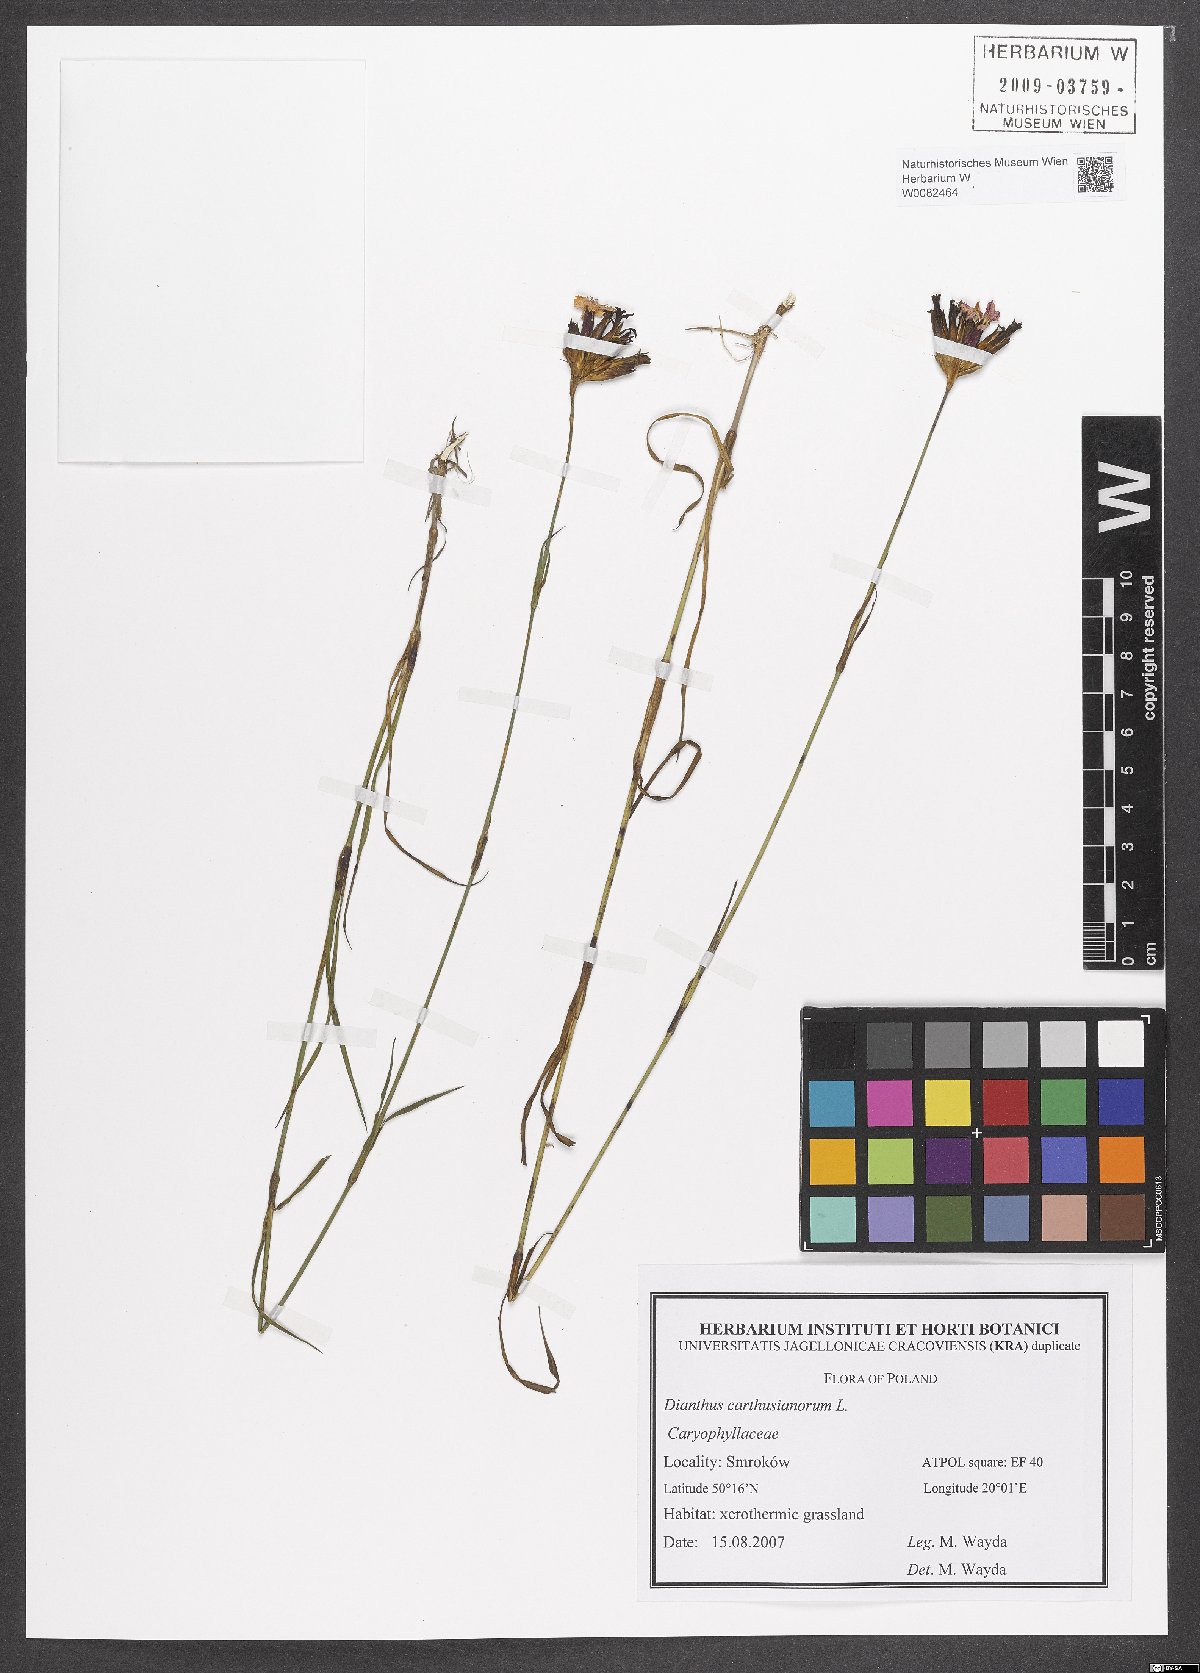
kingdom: Plantae
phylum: Tracheophyta
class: Magnoliopsida
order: Caryophyllales
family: Caryophyllaceae
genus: Dianthus
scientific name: Dianthus carthusianorum
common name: Carthusian pink
